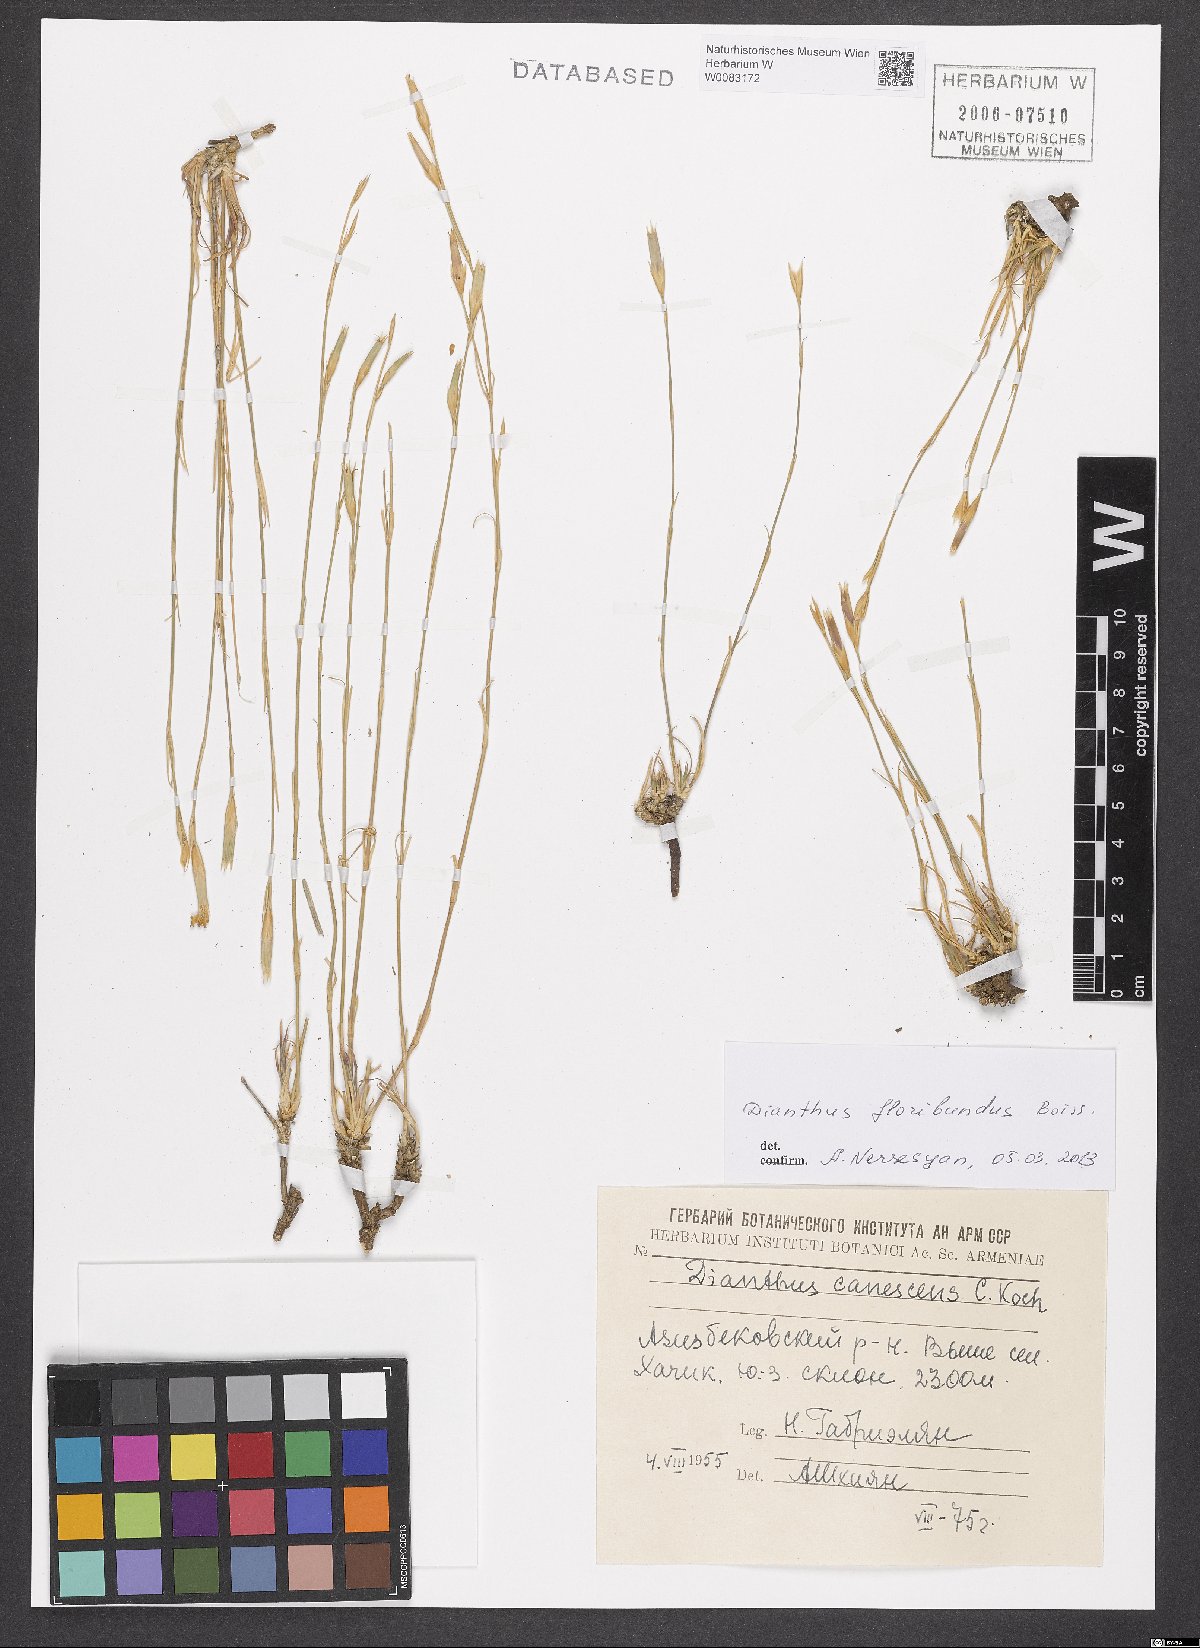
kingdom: Plantae
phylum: Tracheophyta
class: Magnoliopsida
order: Caryophyllales
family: Caryophyllaceae
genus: Dianthus
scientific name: Dianthus floribundus
